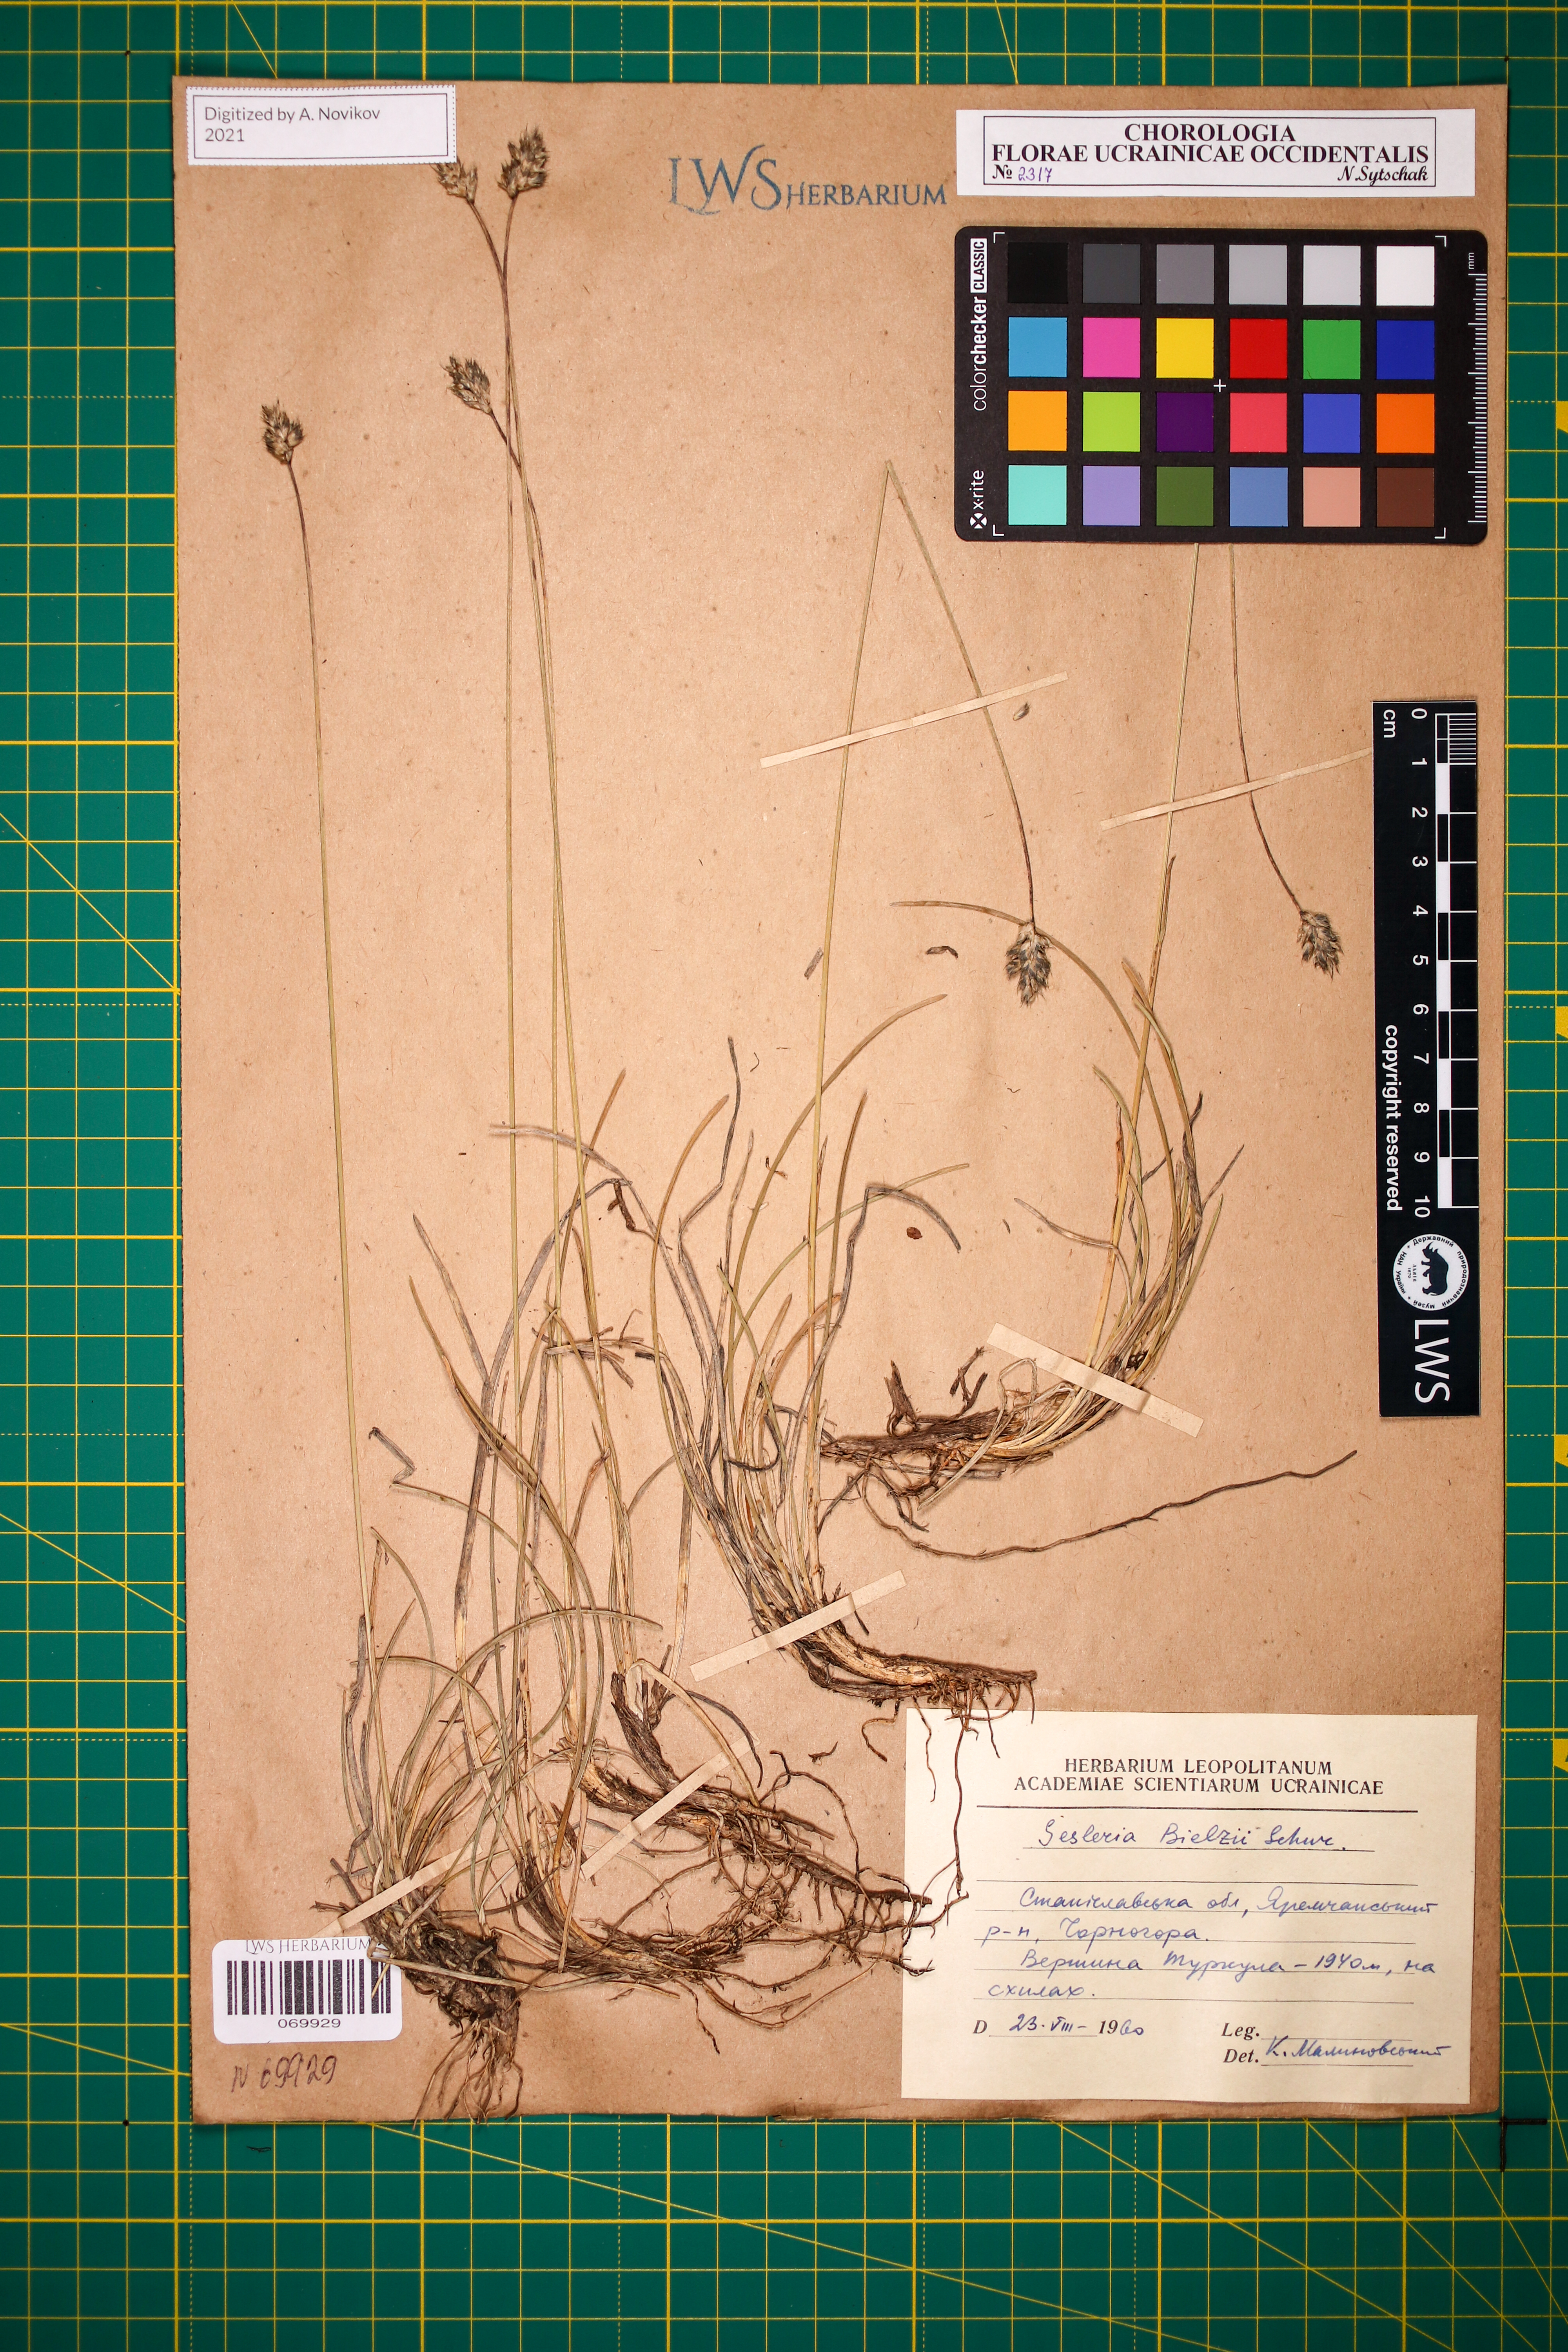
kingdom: Plantae
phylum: Tracheophyta
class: Liliopsida
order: Poales
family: Poaceae
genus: Sesleria
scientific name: Sesleria bielzii
